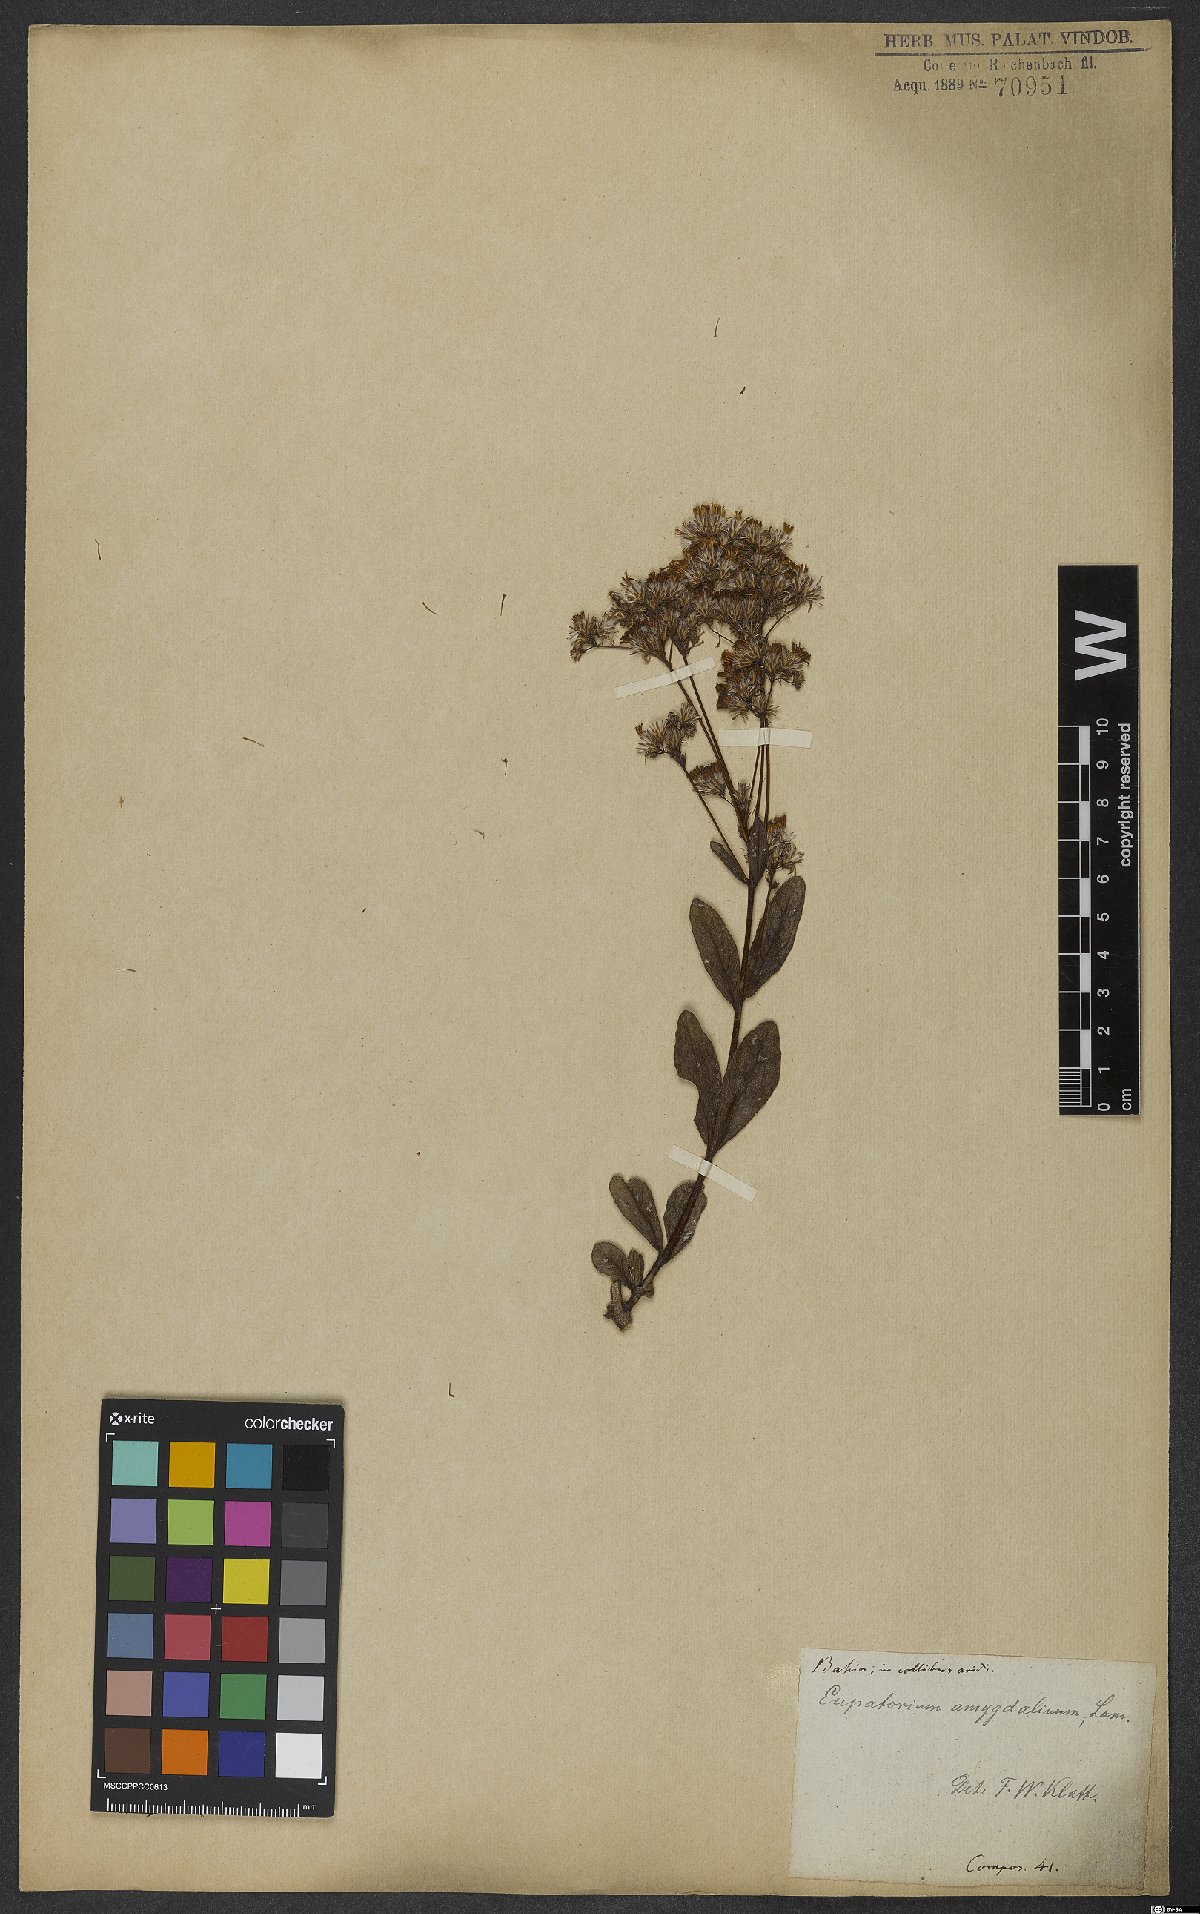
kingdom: Plantae
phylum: Tracheophyta
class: Magnoliopsida
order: Asterales
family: Asteraceae
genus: Ayapana
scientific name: Ayapana amygdalina
